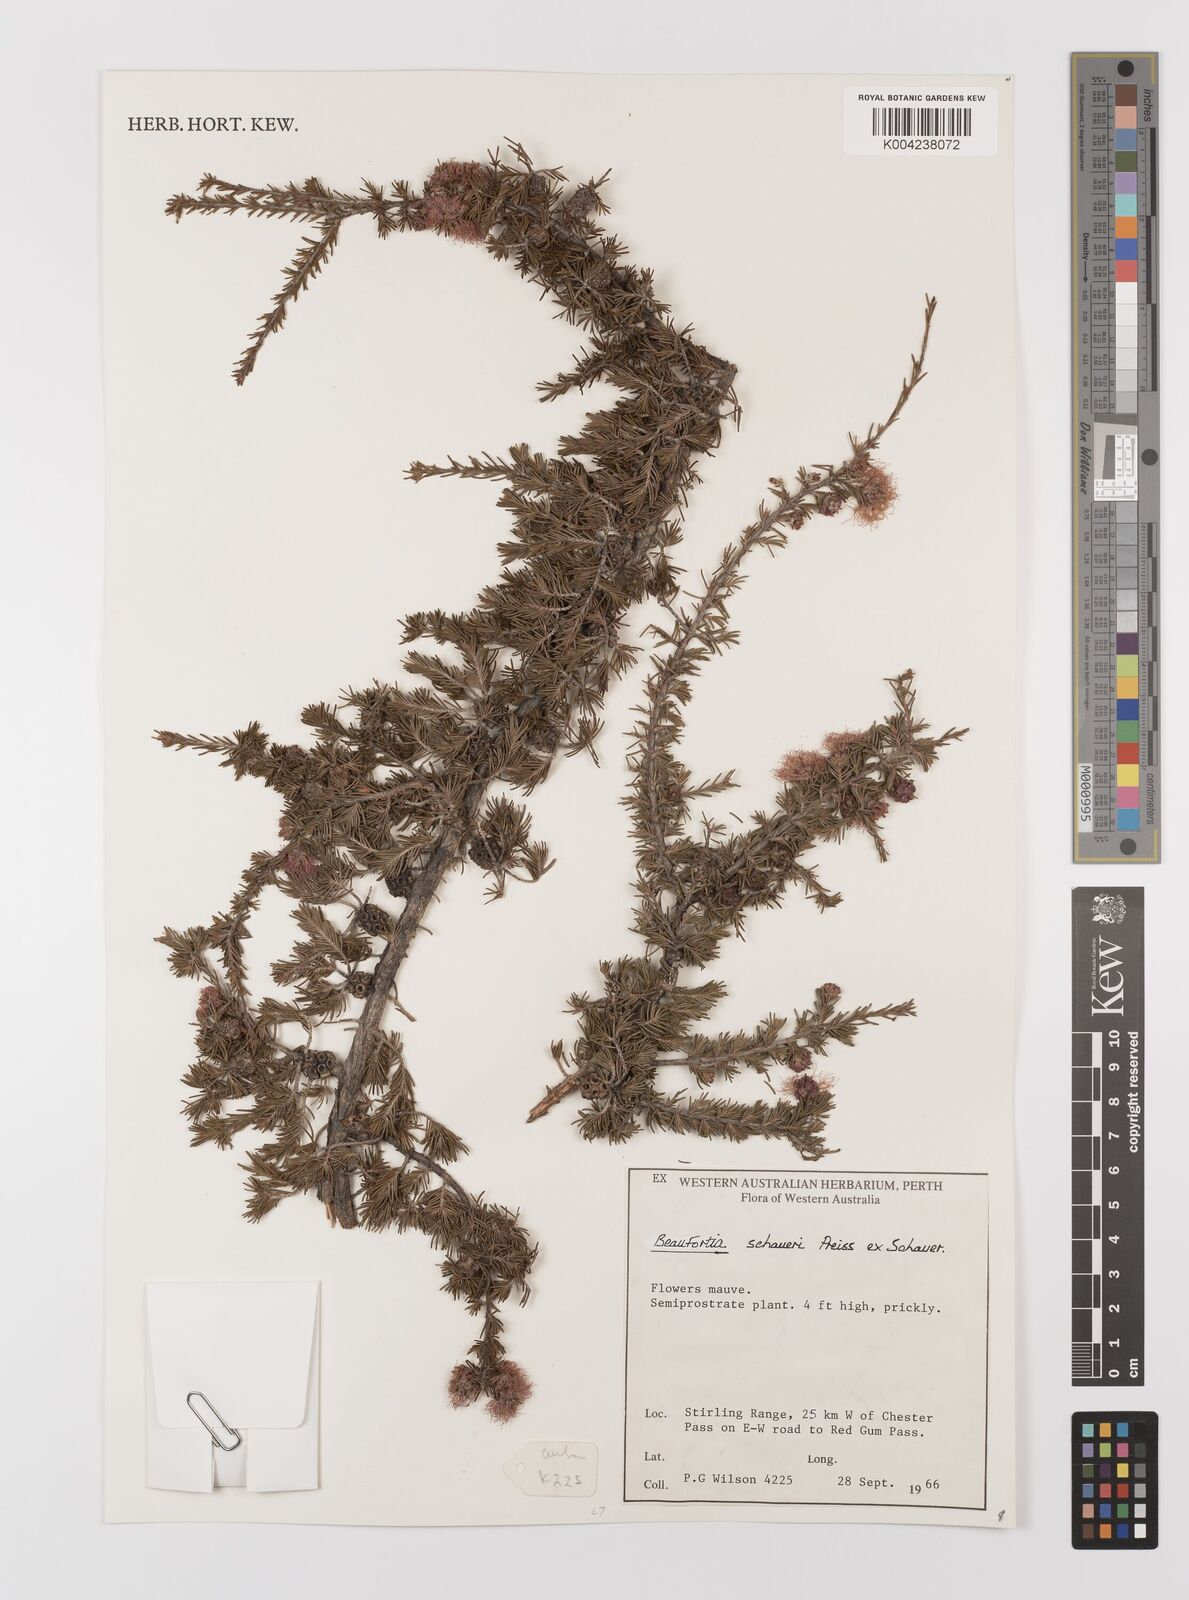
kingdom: Plantae
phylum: Tracheophyta
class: Magnoliopsida
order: Myrtales
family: Myrtaceae
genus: Melaleuca
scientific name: Melaleuca jonesii
